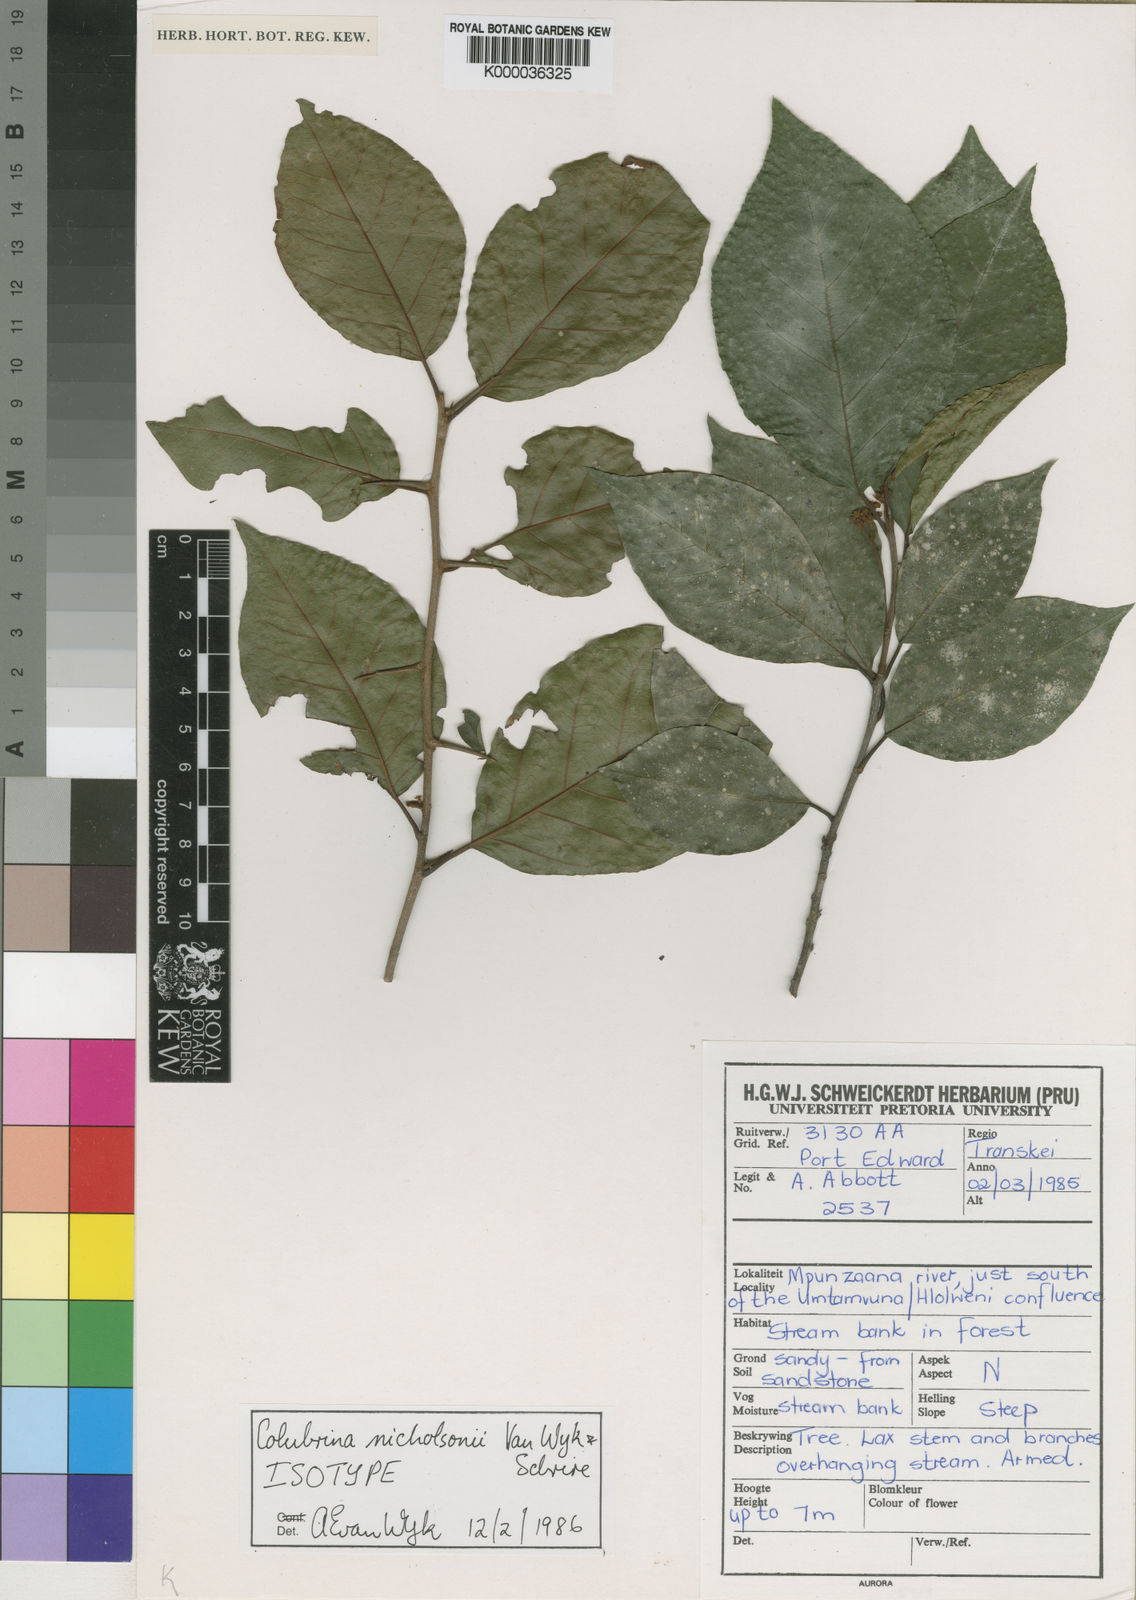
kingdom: Plantae
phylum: Tracheophyta
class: Magnoliopsida
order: Rosales
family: Rhamnaceae
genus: Colubrina
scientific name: Colubrina nicholsonii
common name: Pondo weeping thorn
